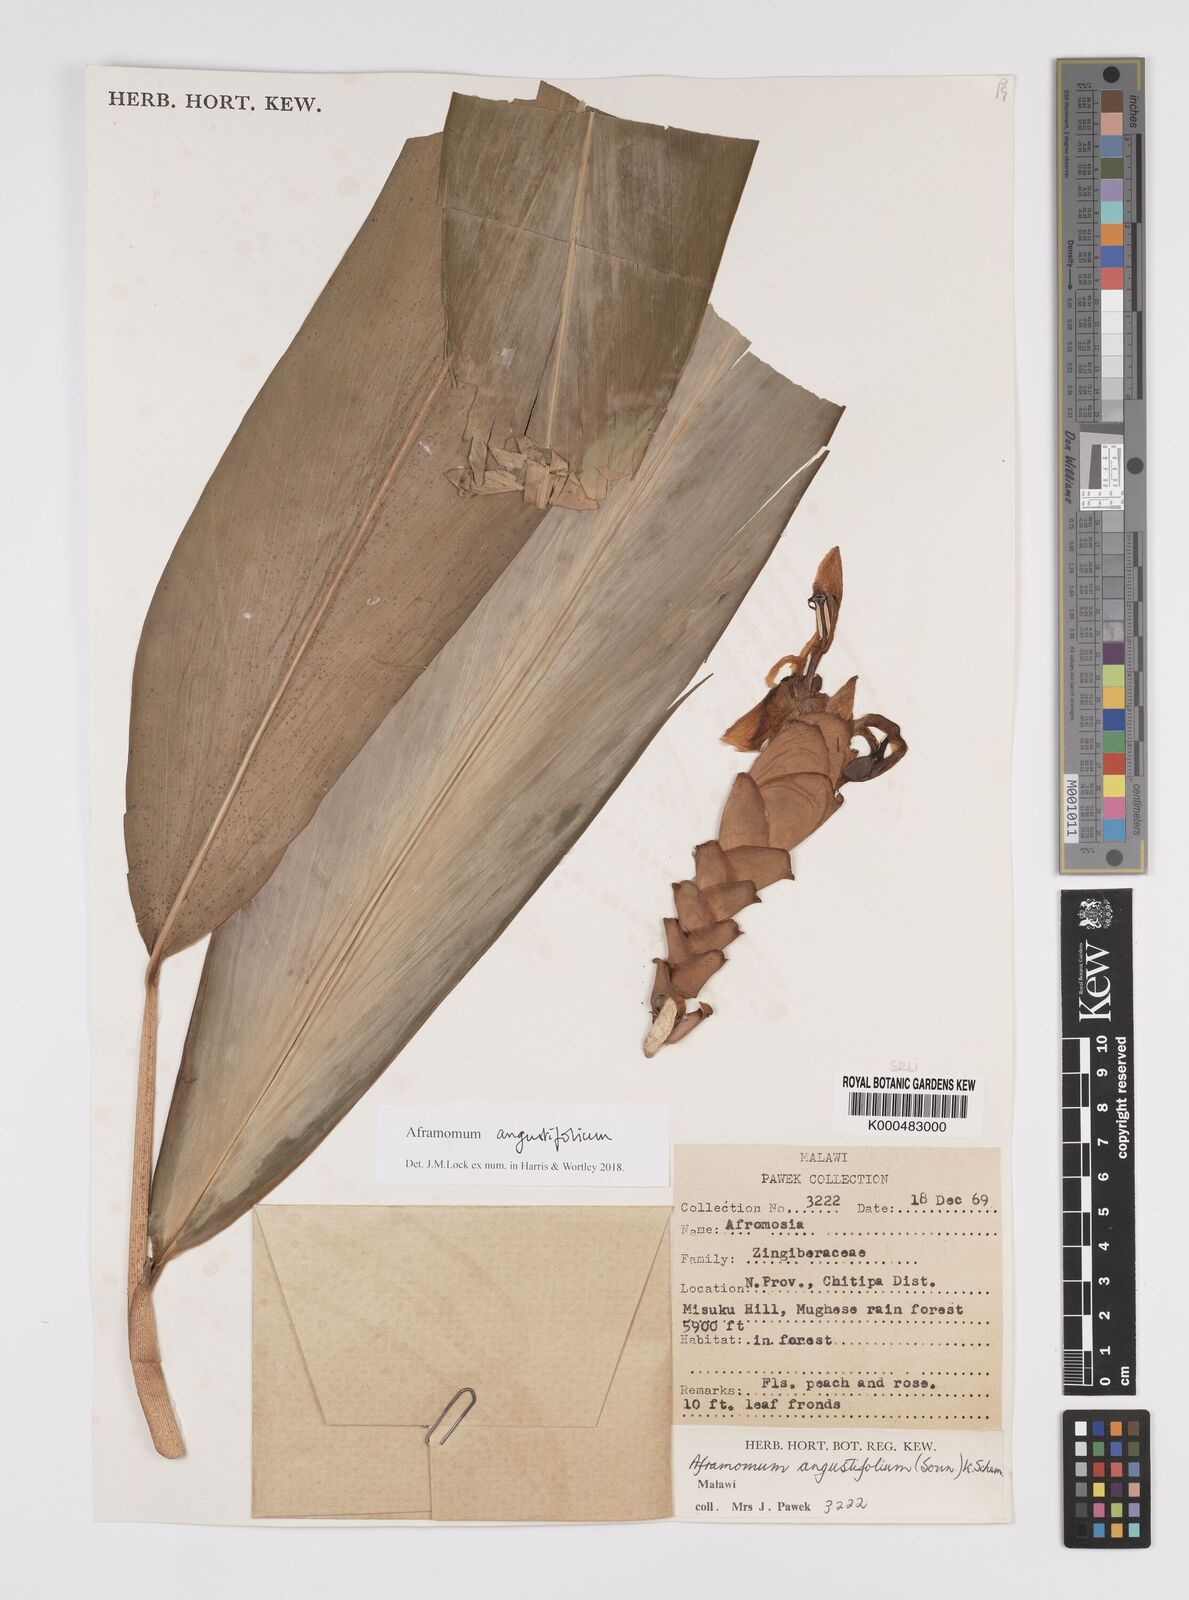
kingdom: Plantae
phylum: Tracheophyta
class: Liliopsida
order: Zingiberales
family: Zingiberaceae
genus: Aframomum
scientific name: Aframomum angustifolium
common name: Guinea grains
